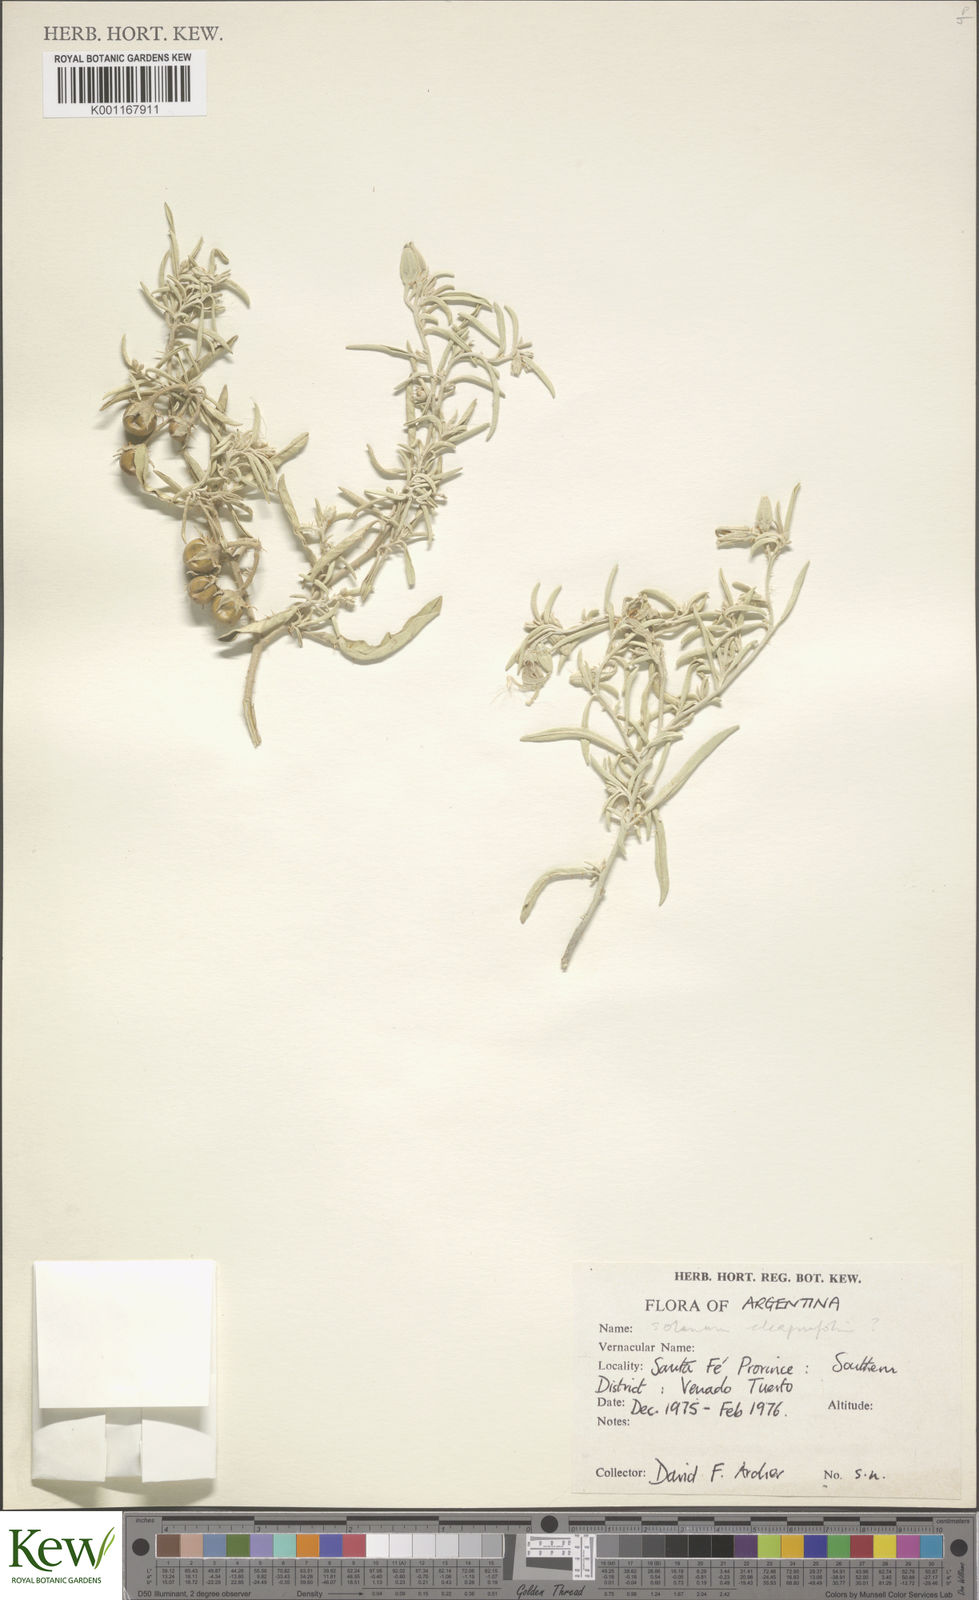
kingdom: Plantae
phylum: Tracheophyta
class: Magnoliopsida
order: Solanales
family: Solanaceae
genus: Solanum
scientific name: Solanum elaeagnifolium
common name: Silverleaf nightshade
